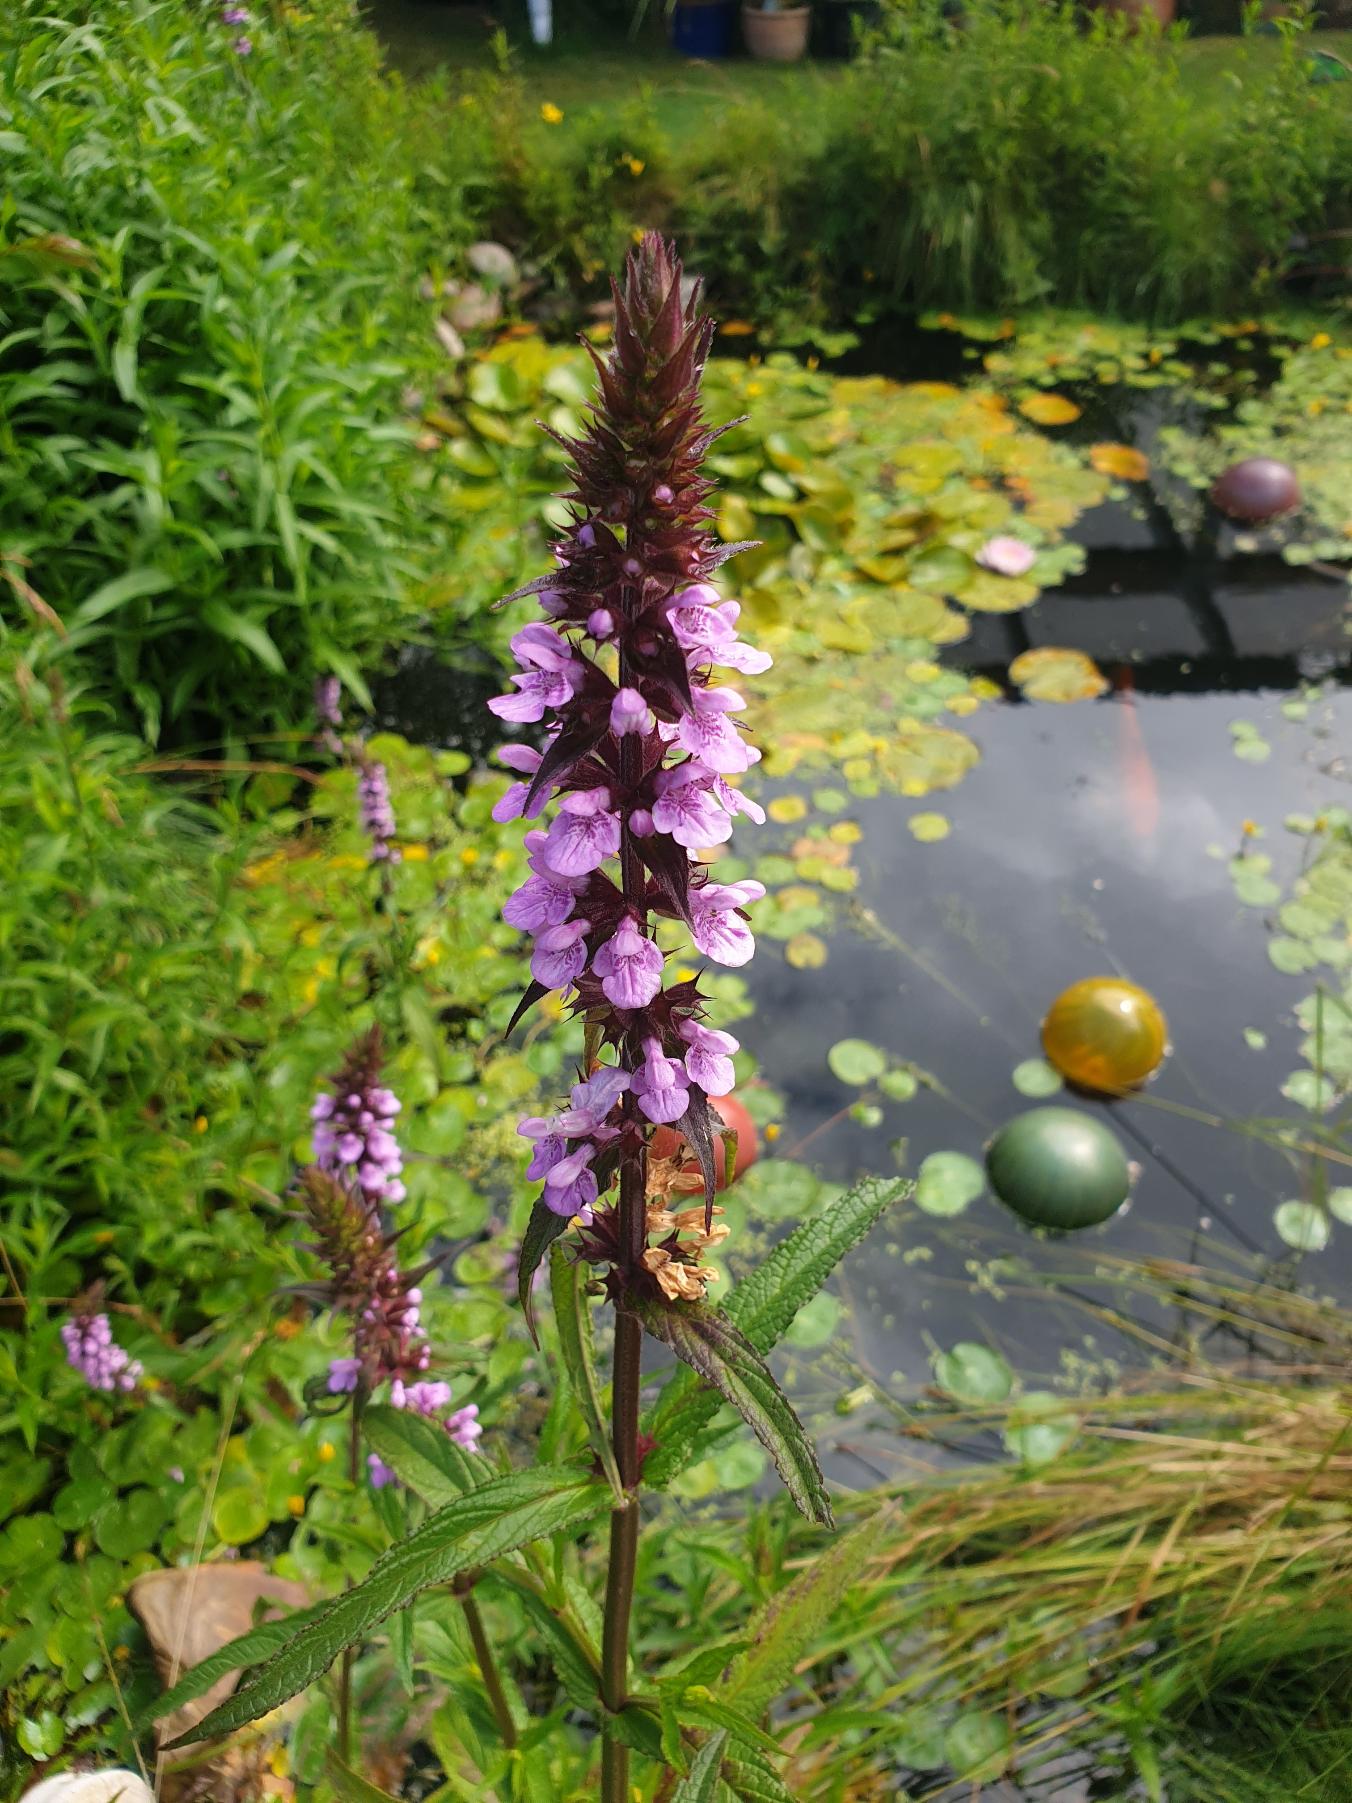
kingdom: Plantae
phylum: Tracheophyta
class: Magnoliopsida
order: Lamiales
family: Lamiaceae
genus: Stachys
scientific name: Stachys palustris
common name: Kær-galtetand
